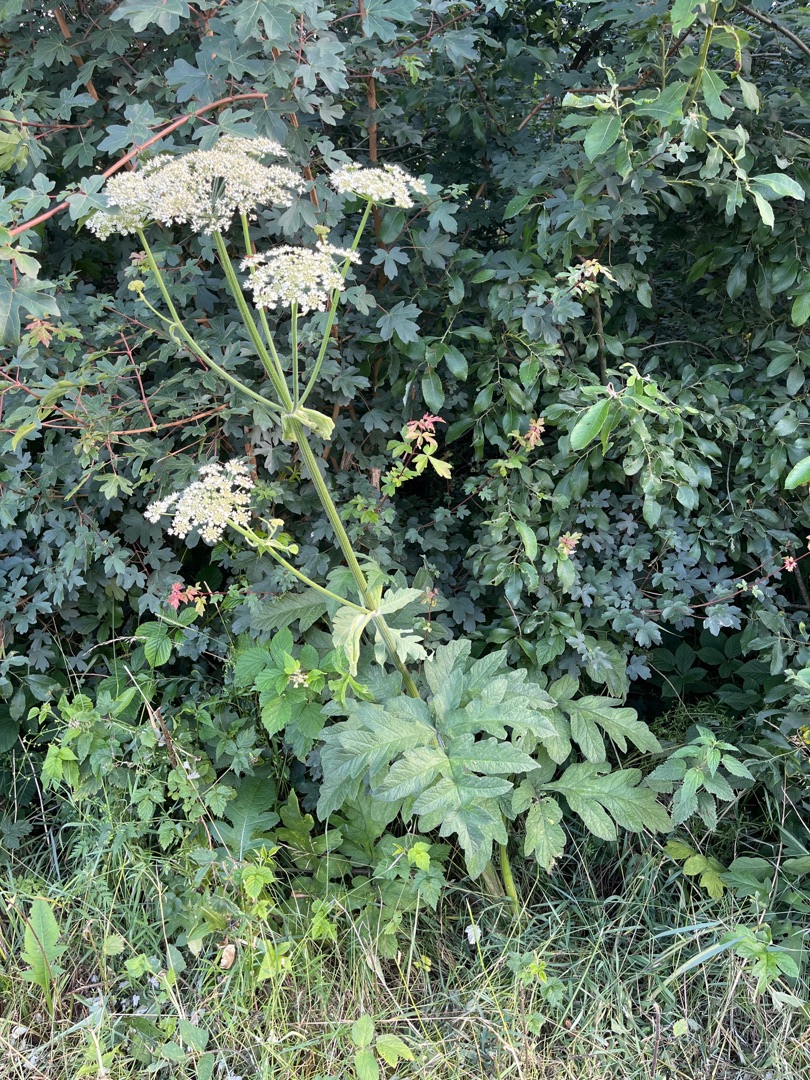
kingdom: Plantae
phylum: Tracheophyta
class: Magnoliopsida
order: Apiales
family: Apiaceae
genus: Heracleum
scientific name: Heracleum sphondylium
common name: Almindelig bjørneklo
